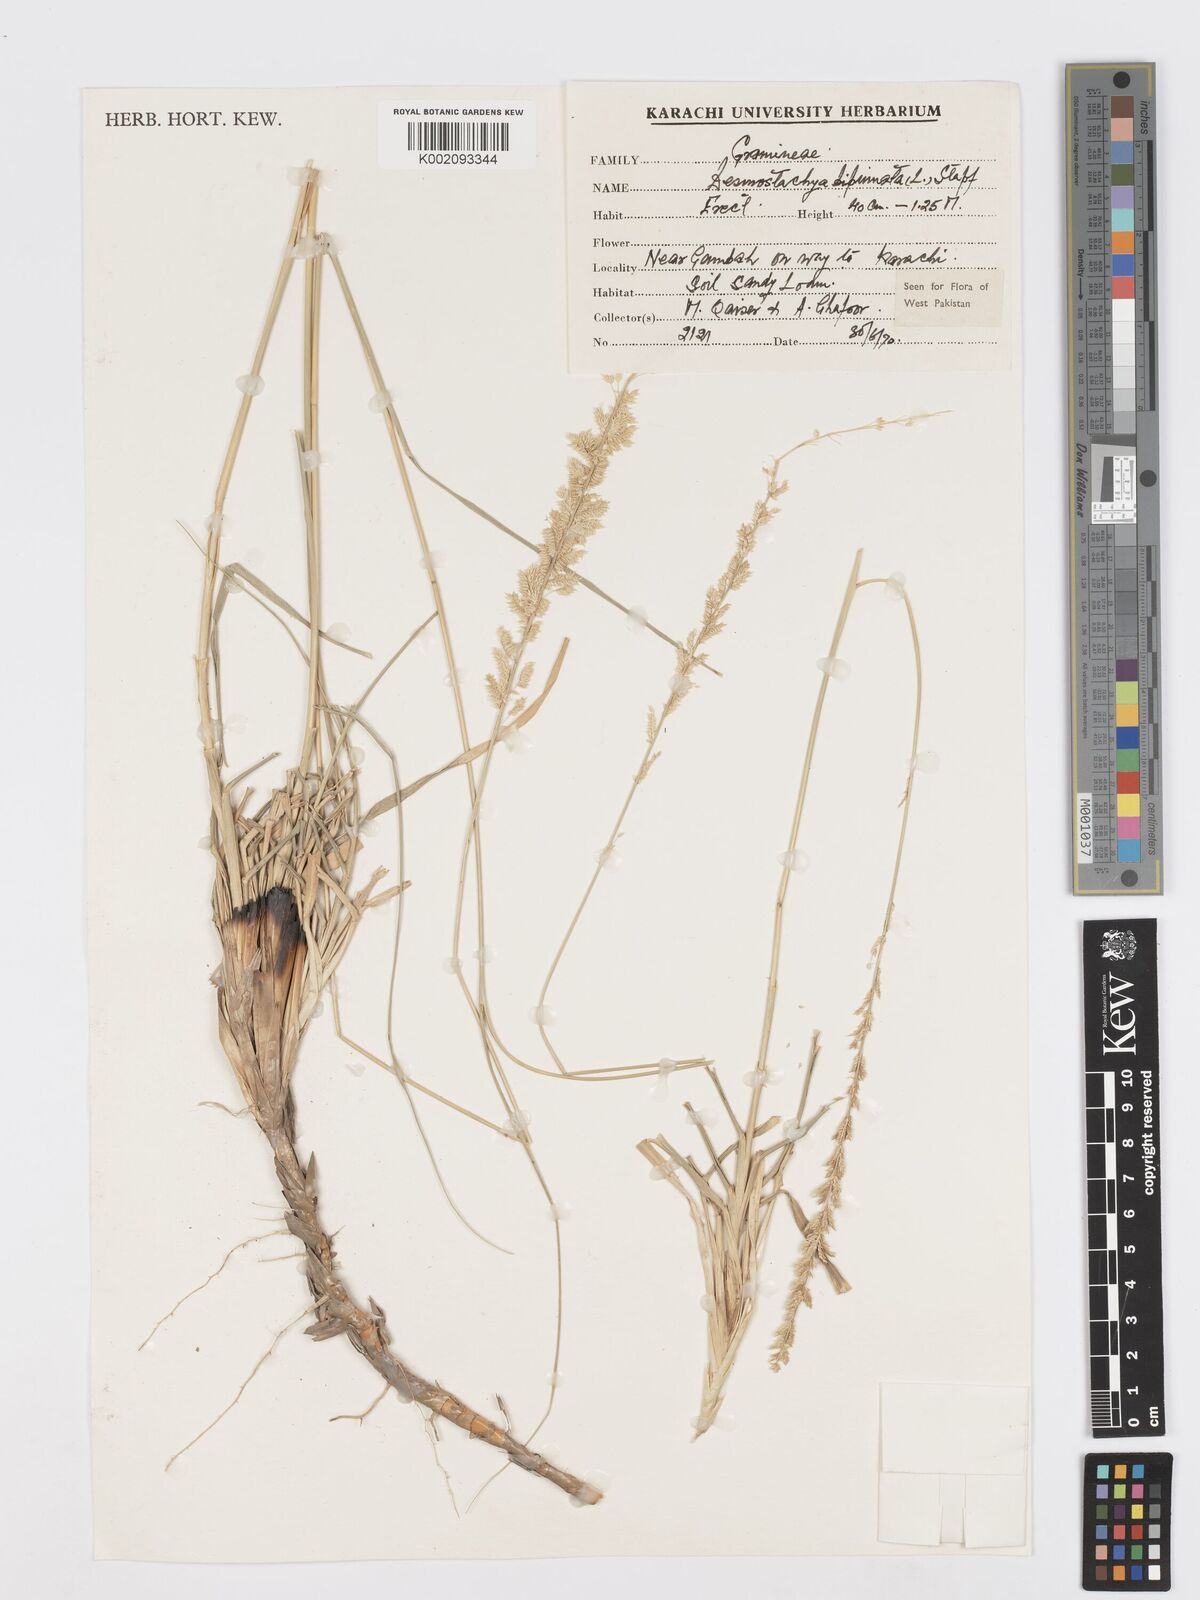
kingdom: Plantae
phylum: Tracheophyta
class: Liliopsida
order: Poales
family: Poaceae
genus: Desmostachya
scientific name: Desmostachya bipinnata
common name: Crowfoot grass
